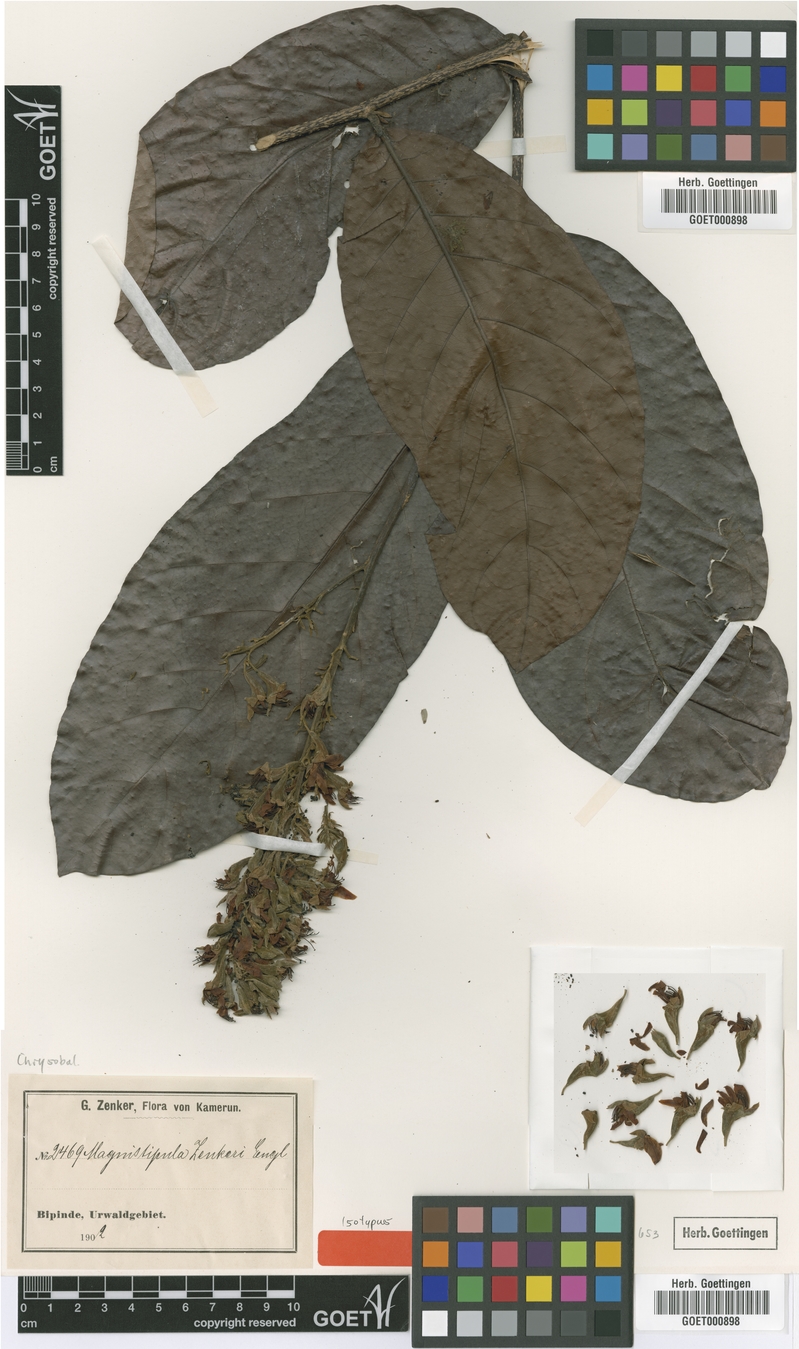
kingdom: Plantae
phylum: Tracheophyta
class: Magnoliopsida
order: Malpighiales
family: Chrysobalanaceae
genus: Magnistipula
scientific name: Magnistipula zenkeri
